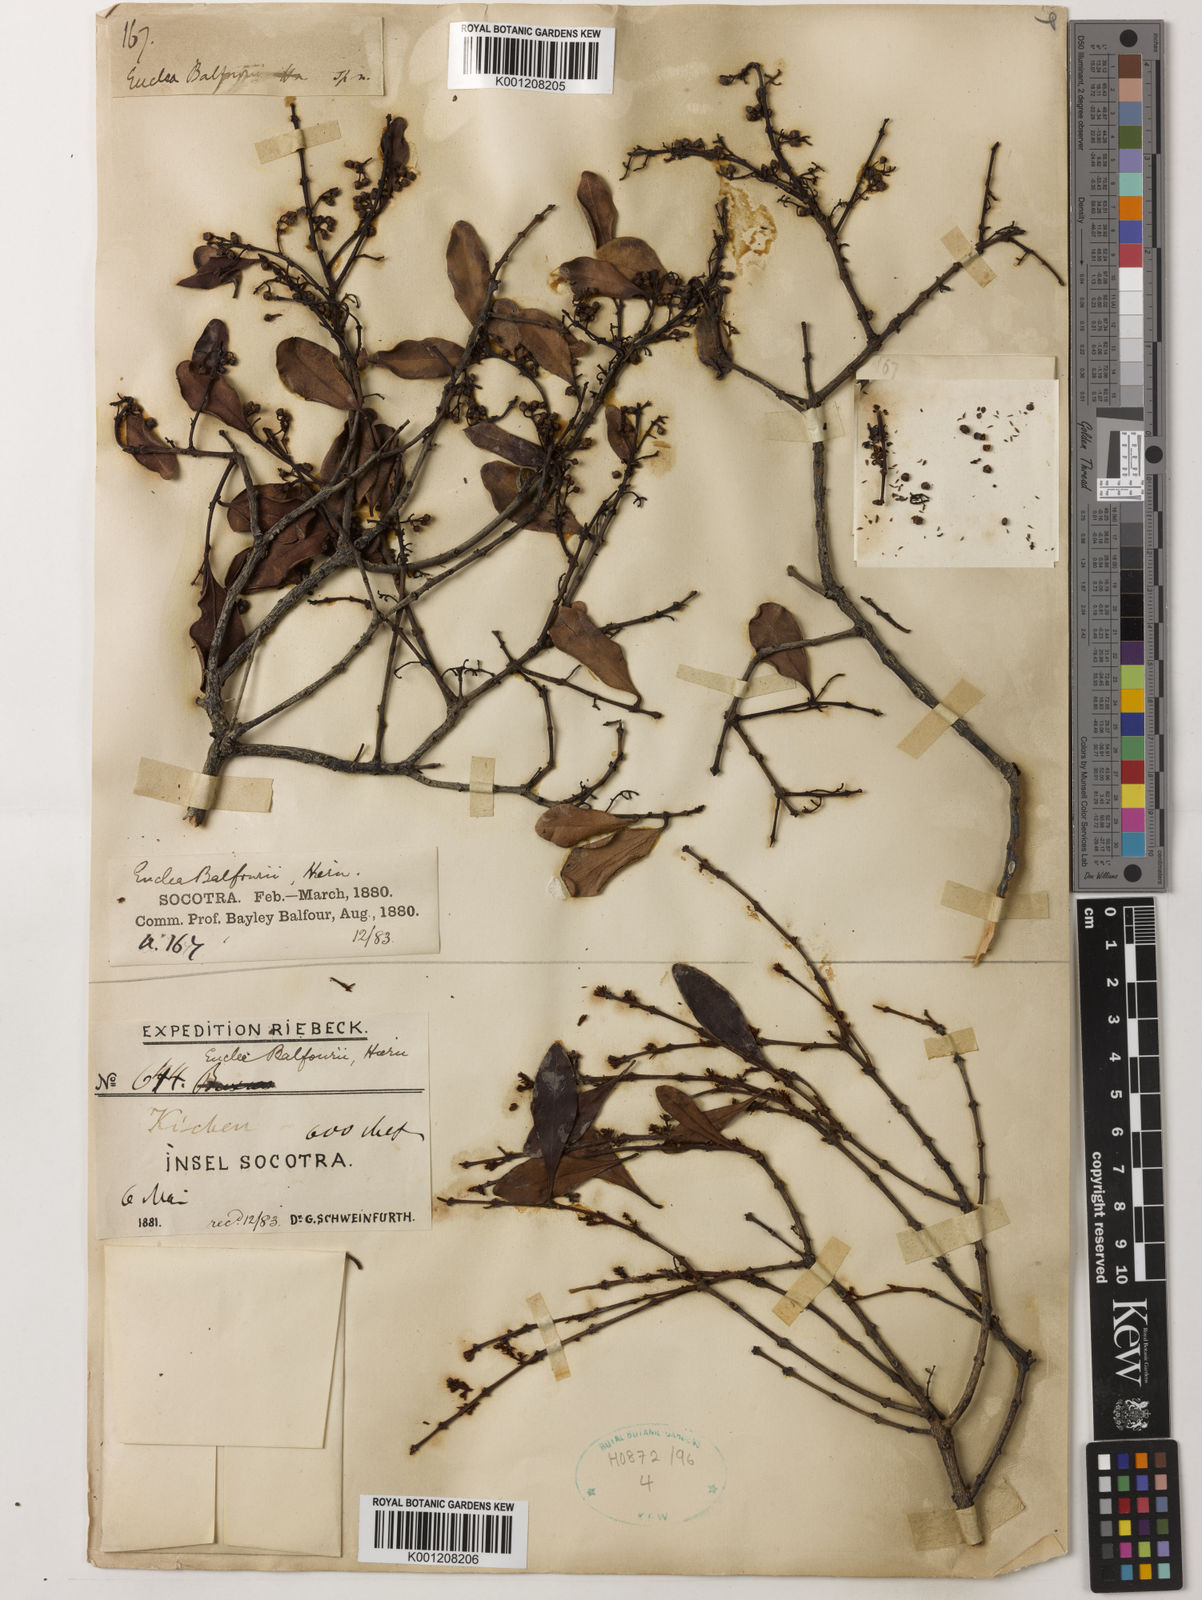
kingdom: Plantae
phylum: Tracheophyta
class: Magnoliopsida
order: Ericales
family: Ebenaceae
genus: Euclea
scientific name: Euclea divinorum
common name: Diamond-leaved euclea
